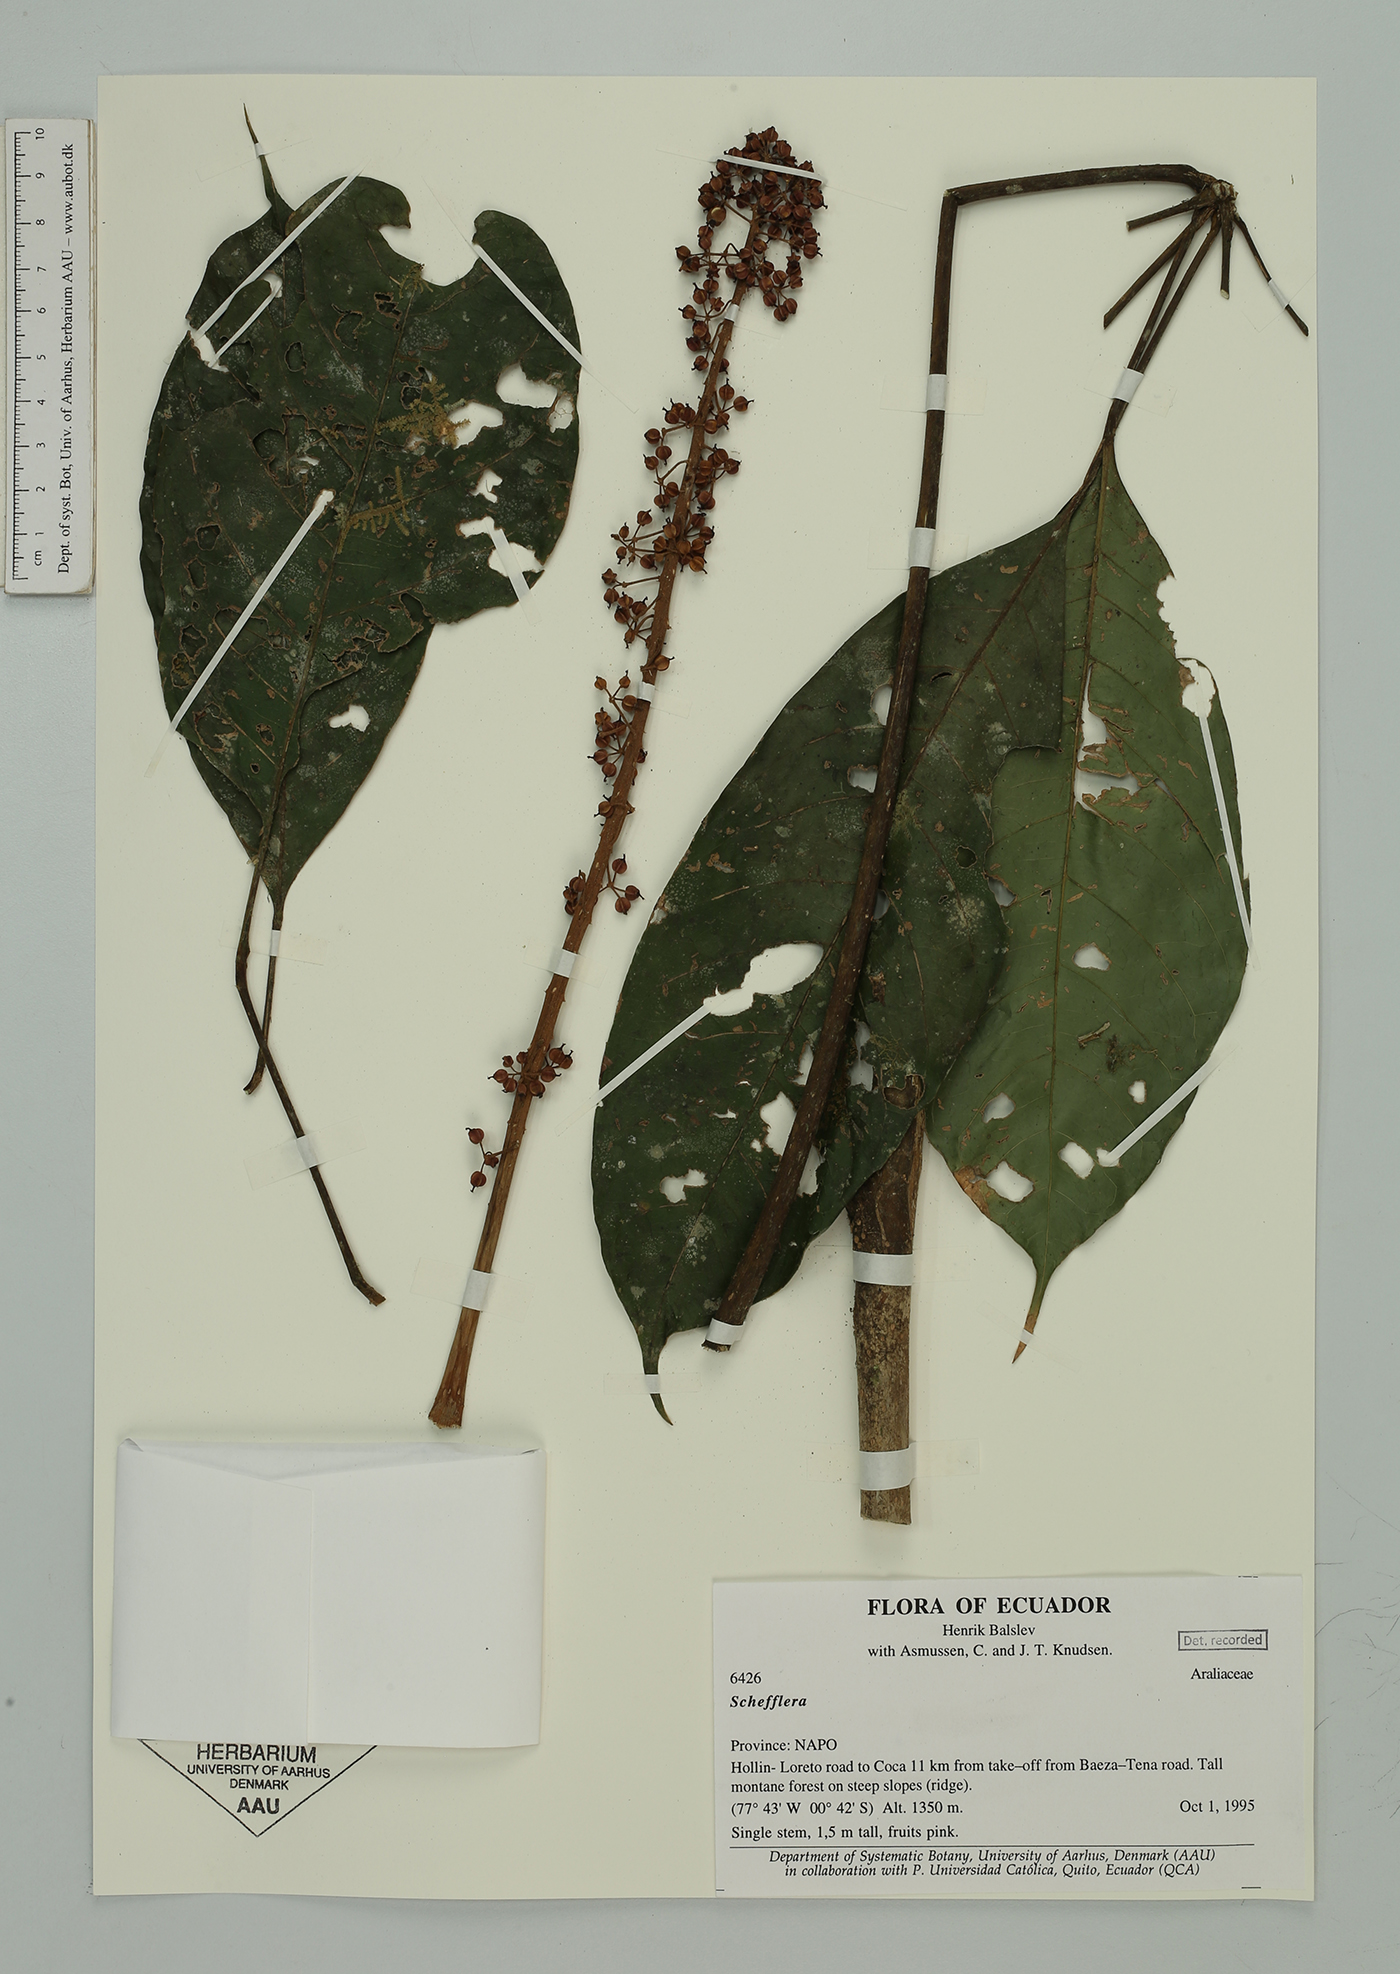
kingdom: Plantae
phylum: Tracheophyta
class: Magnoliopsida
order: Apiales
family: Araliaceae
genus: Sciodaphyllum
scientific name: Sciodaphyllum
